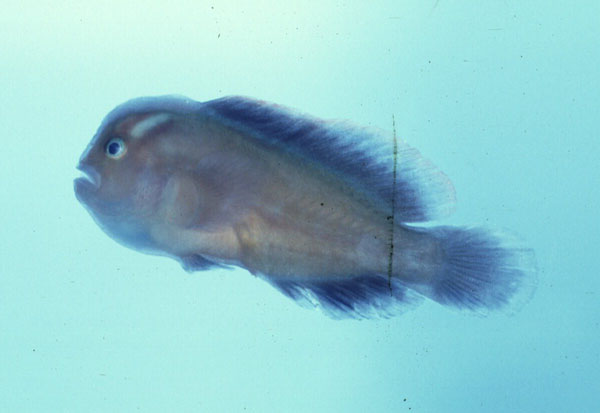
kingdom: Animalia
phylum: Chordata
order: Perciformes
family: Gobiidae
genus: Gobiodon
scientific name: Gobiodon micropus
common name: Small-eyed goby
